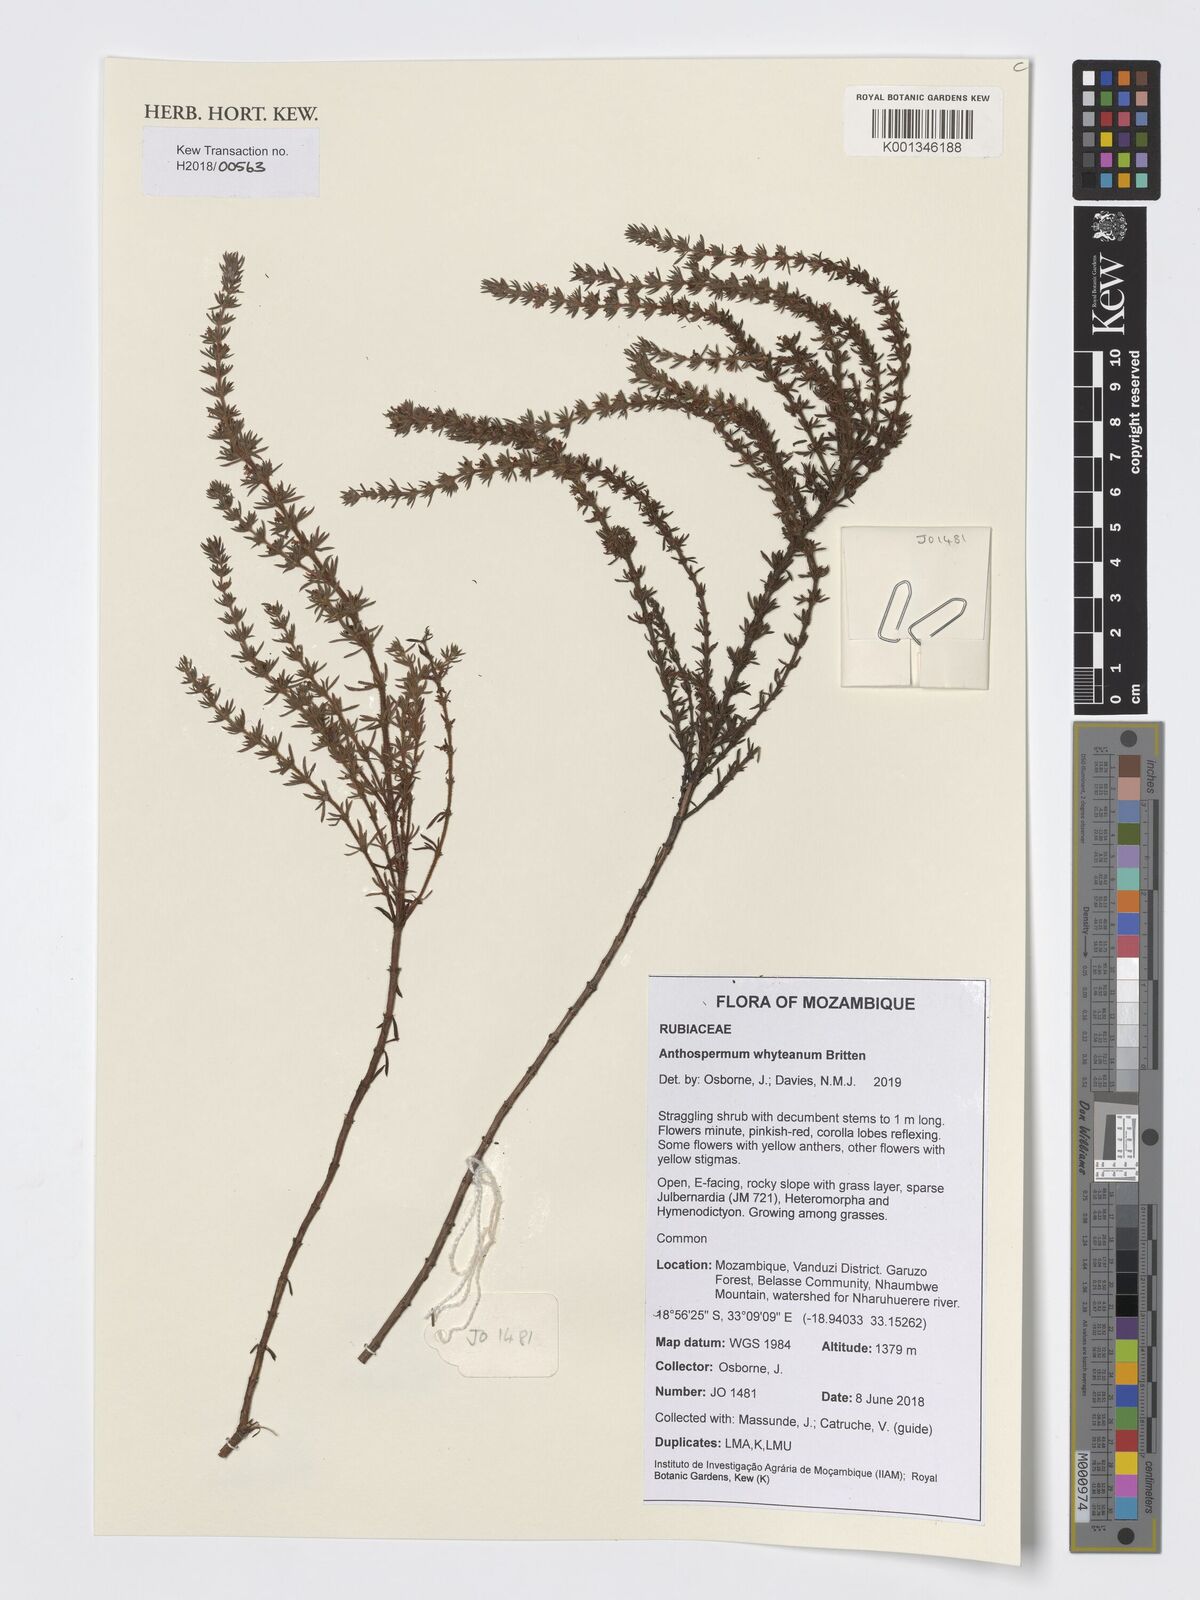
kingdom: Plantae
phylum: Tracheophyta
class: Magnoliopsida
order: Gentianales
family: Rubiaceae
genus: Anthospermum
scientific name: Anthospermum whyteanum
